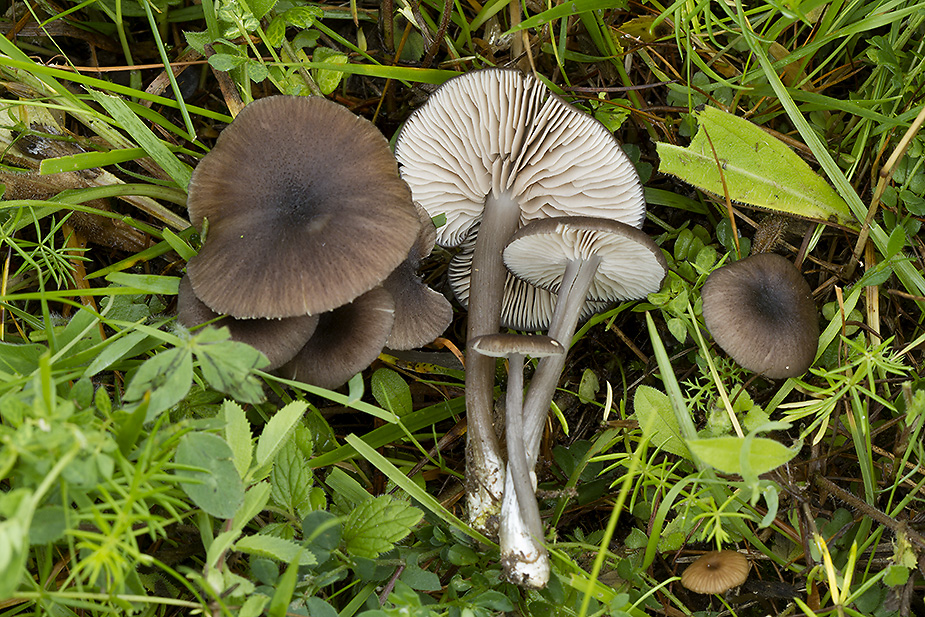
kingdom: Fungi
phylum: Basidiomycota
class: Agaricomycetes
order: Agaricales
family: Entolomataceae
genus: Entoloma
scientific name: Entoloma porphyrogriseum
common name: porfyrgrå rødblad
